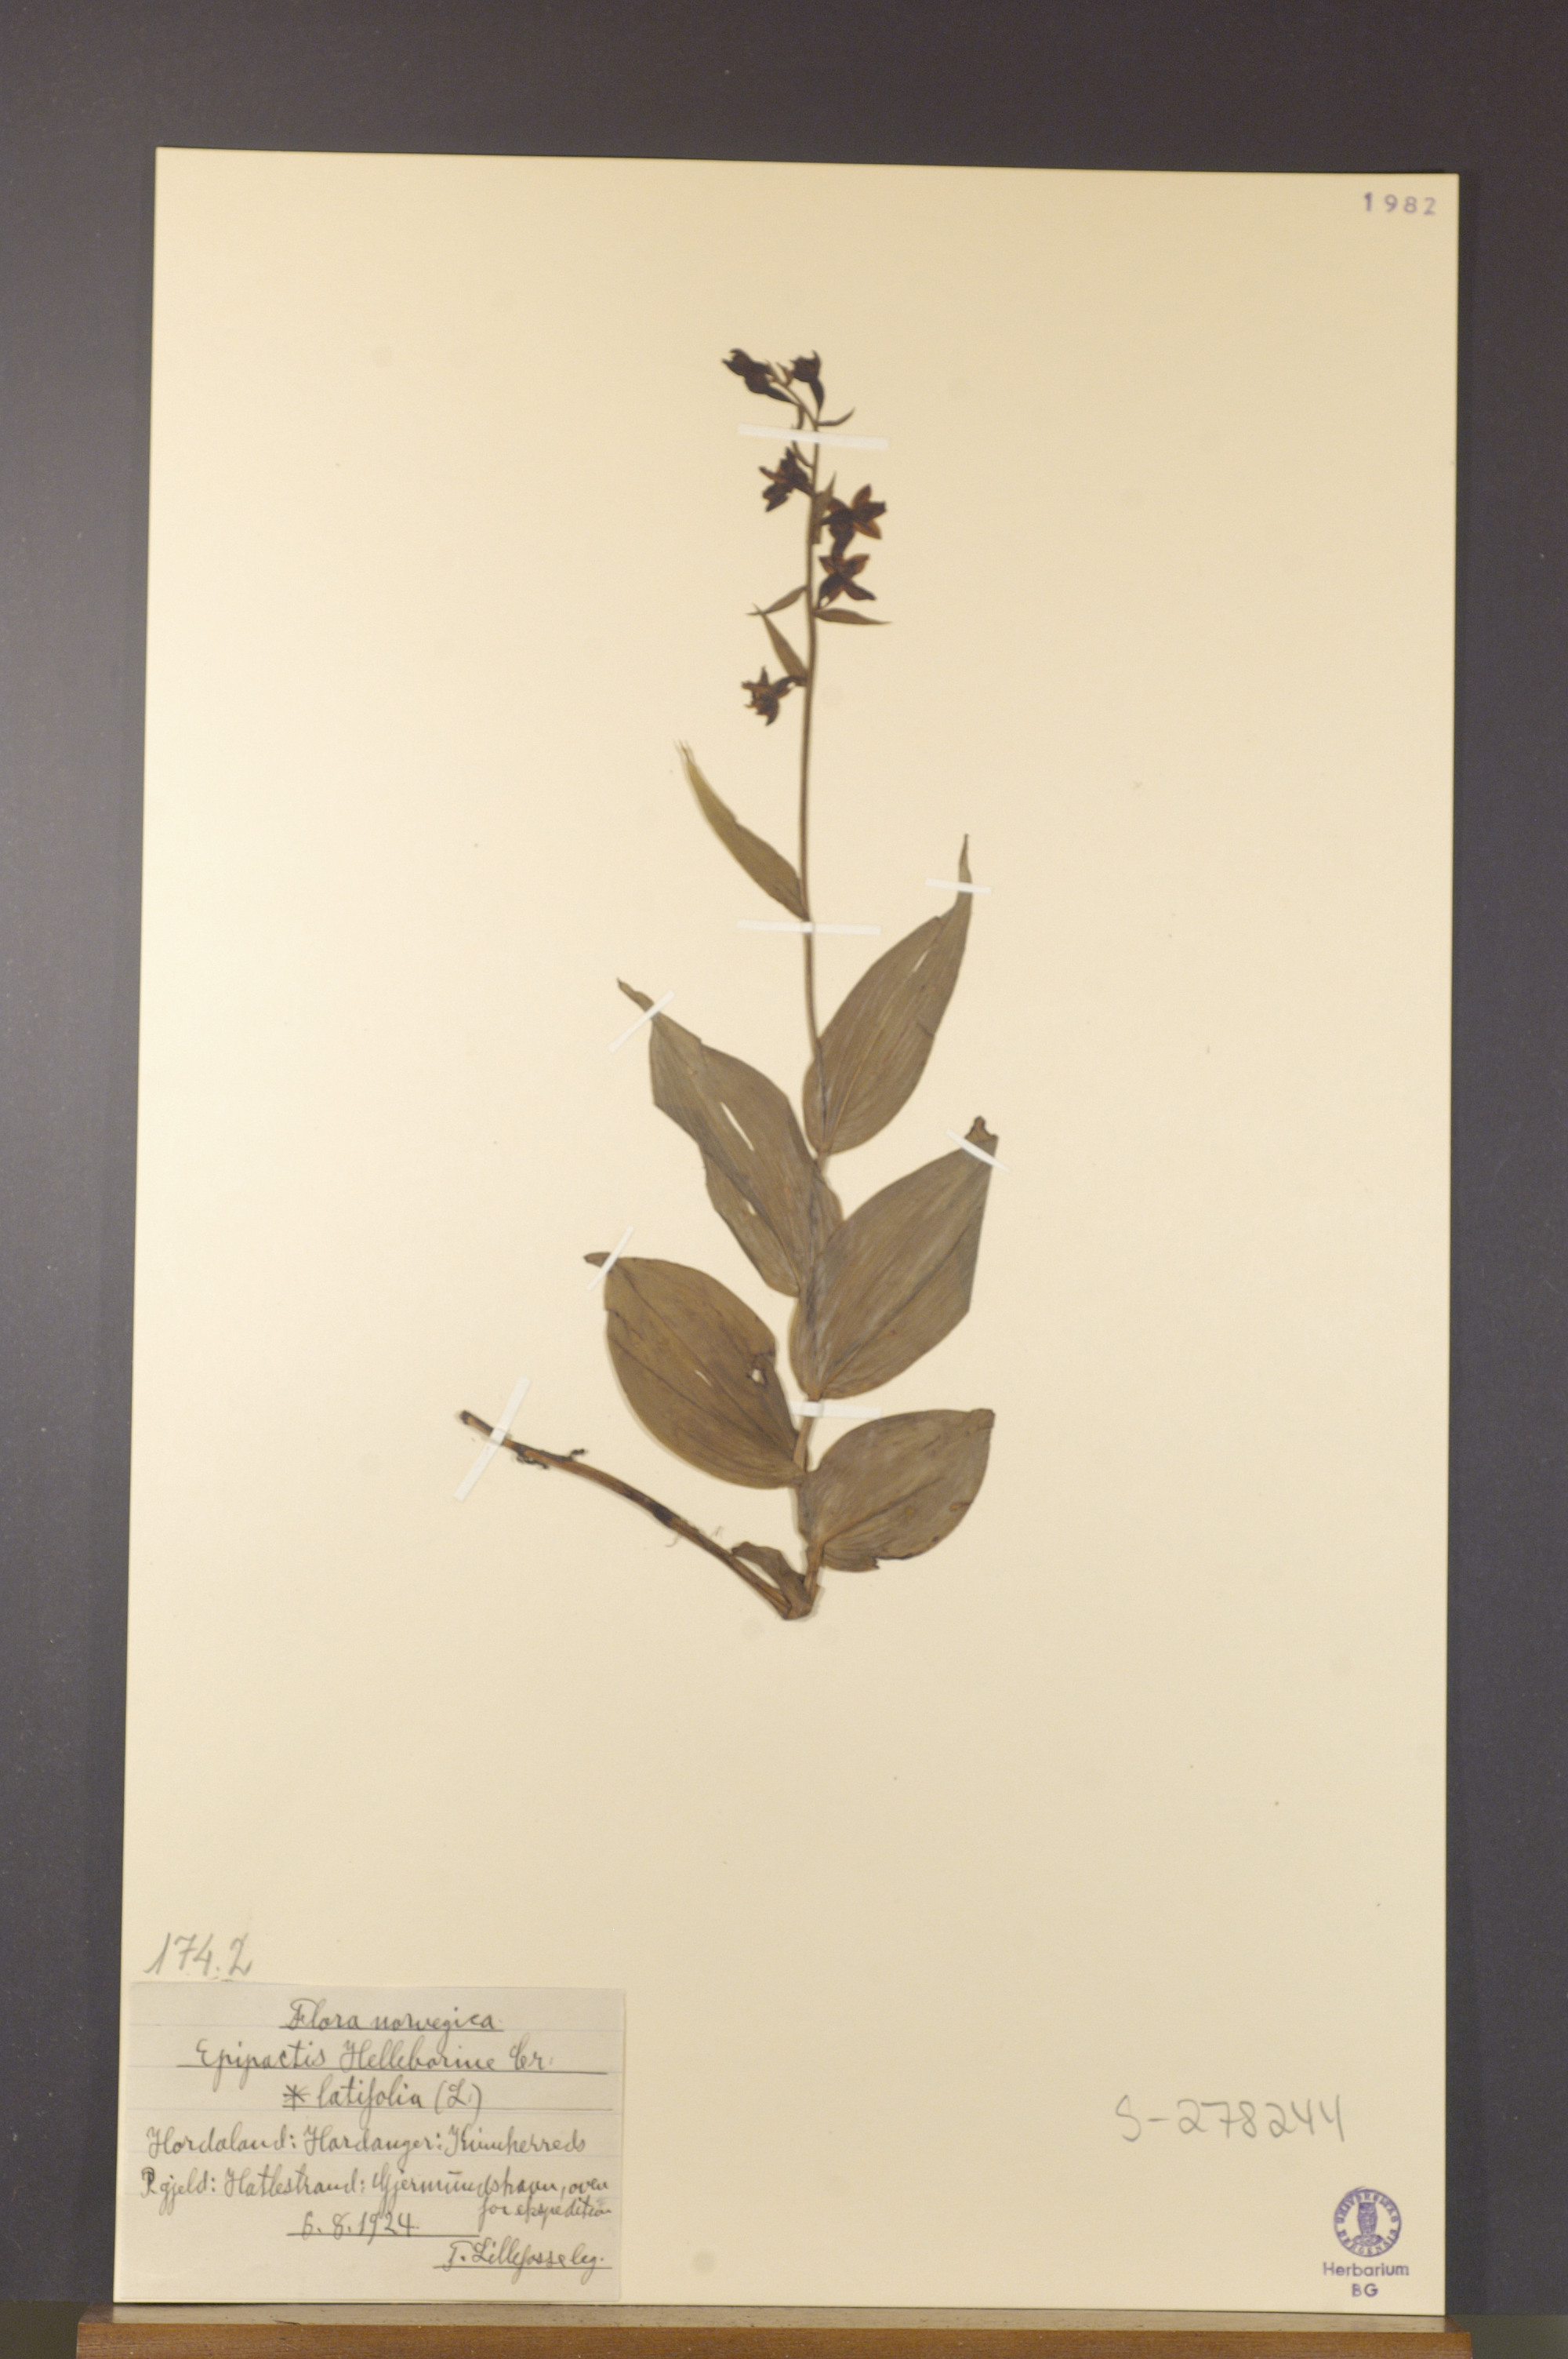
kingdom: Plantae
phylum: Tracheophyta
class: Liliopsida
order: Asparagales
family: Orchidaceae
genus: Epipactis
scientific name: Epipactis helleborine
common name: Broad-leaved helleborine
